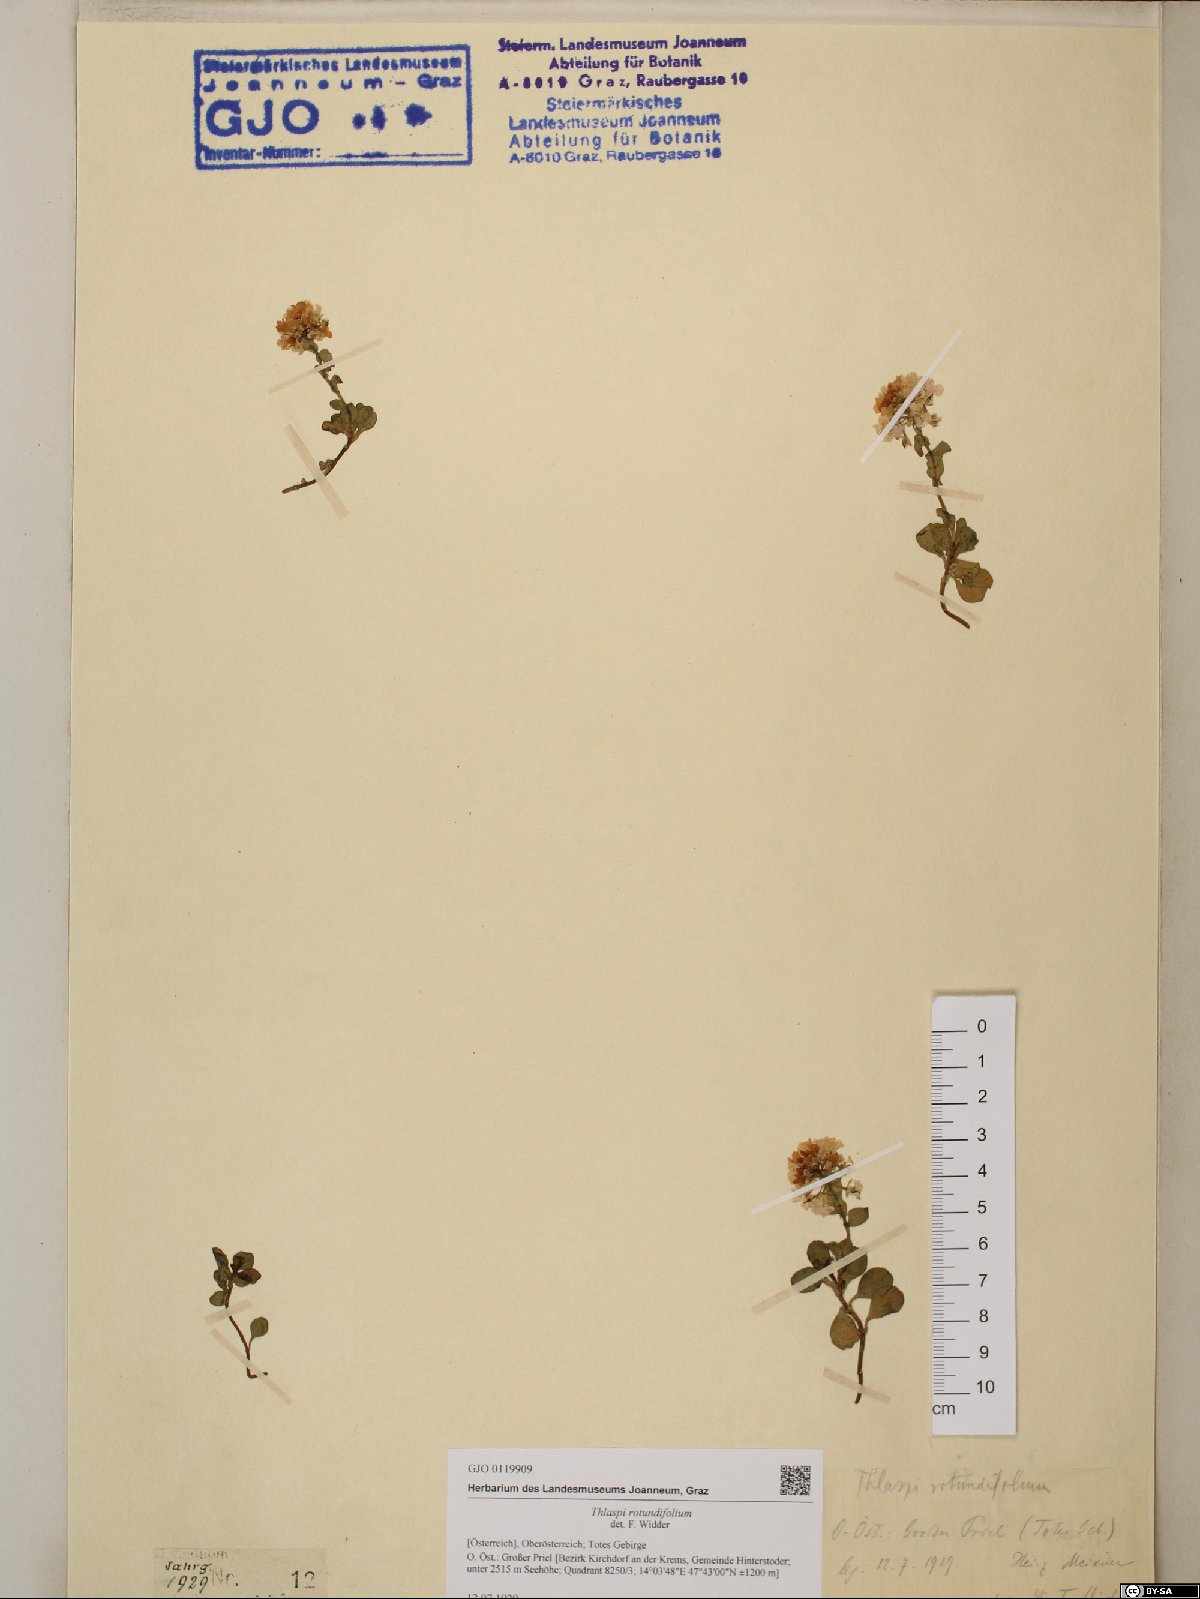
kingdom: Plantae
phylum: Tracheophyta
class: Magnoliopsida
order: Brassicales
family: Brassicaceae
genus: Noccaea
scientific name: Noccaea rotundifolia
